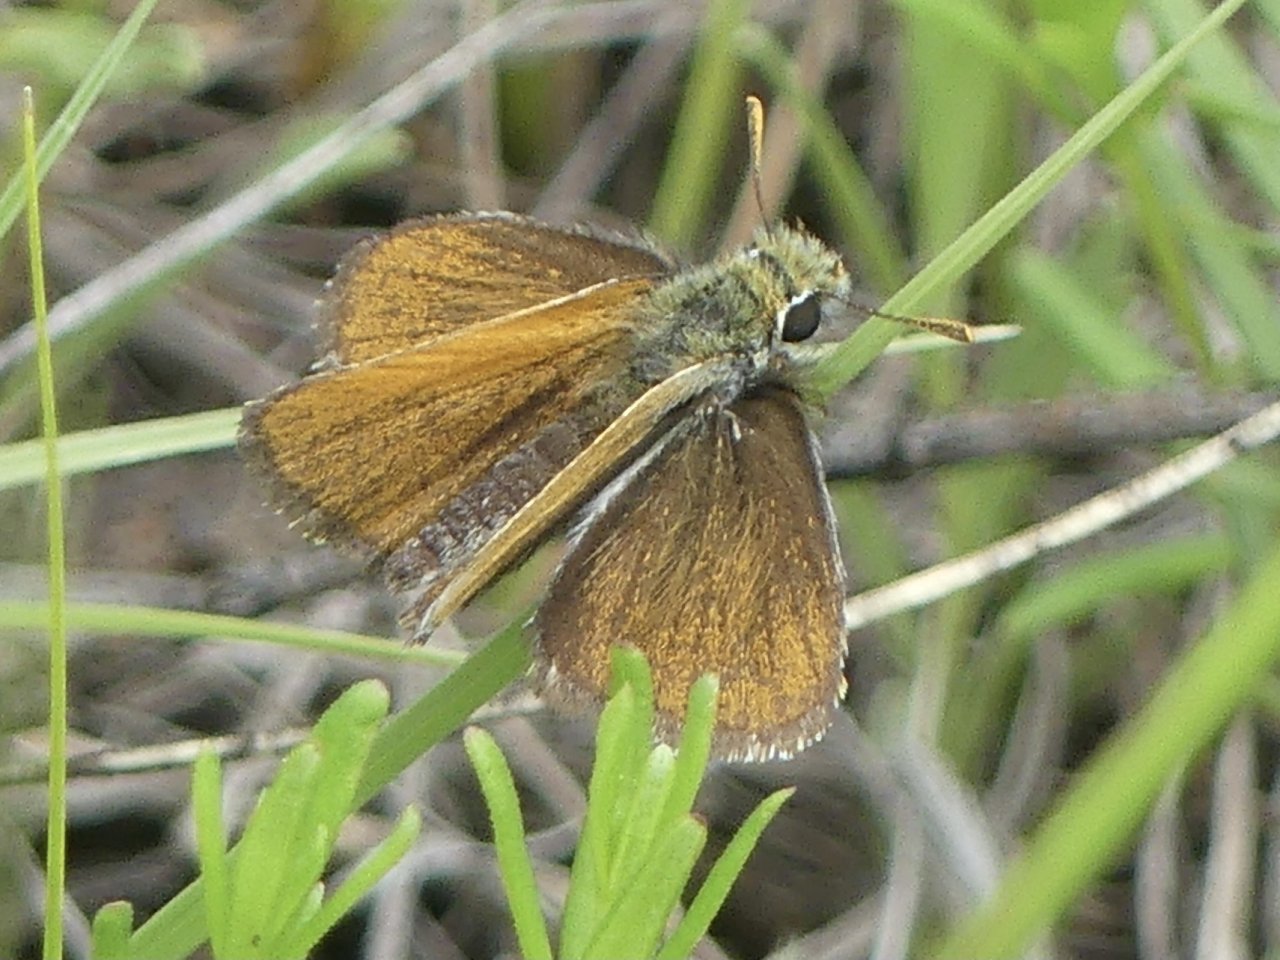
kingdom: Animalia
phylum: Arthropoda
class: Insecta
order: Lepidoptera
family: Hesperiidae
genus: Oarisma
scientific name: Oarisma garita
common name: Garita Skipperling
